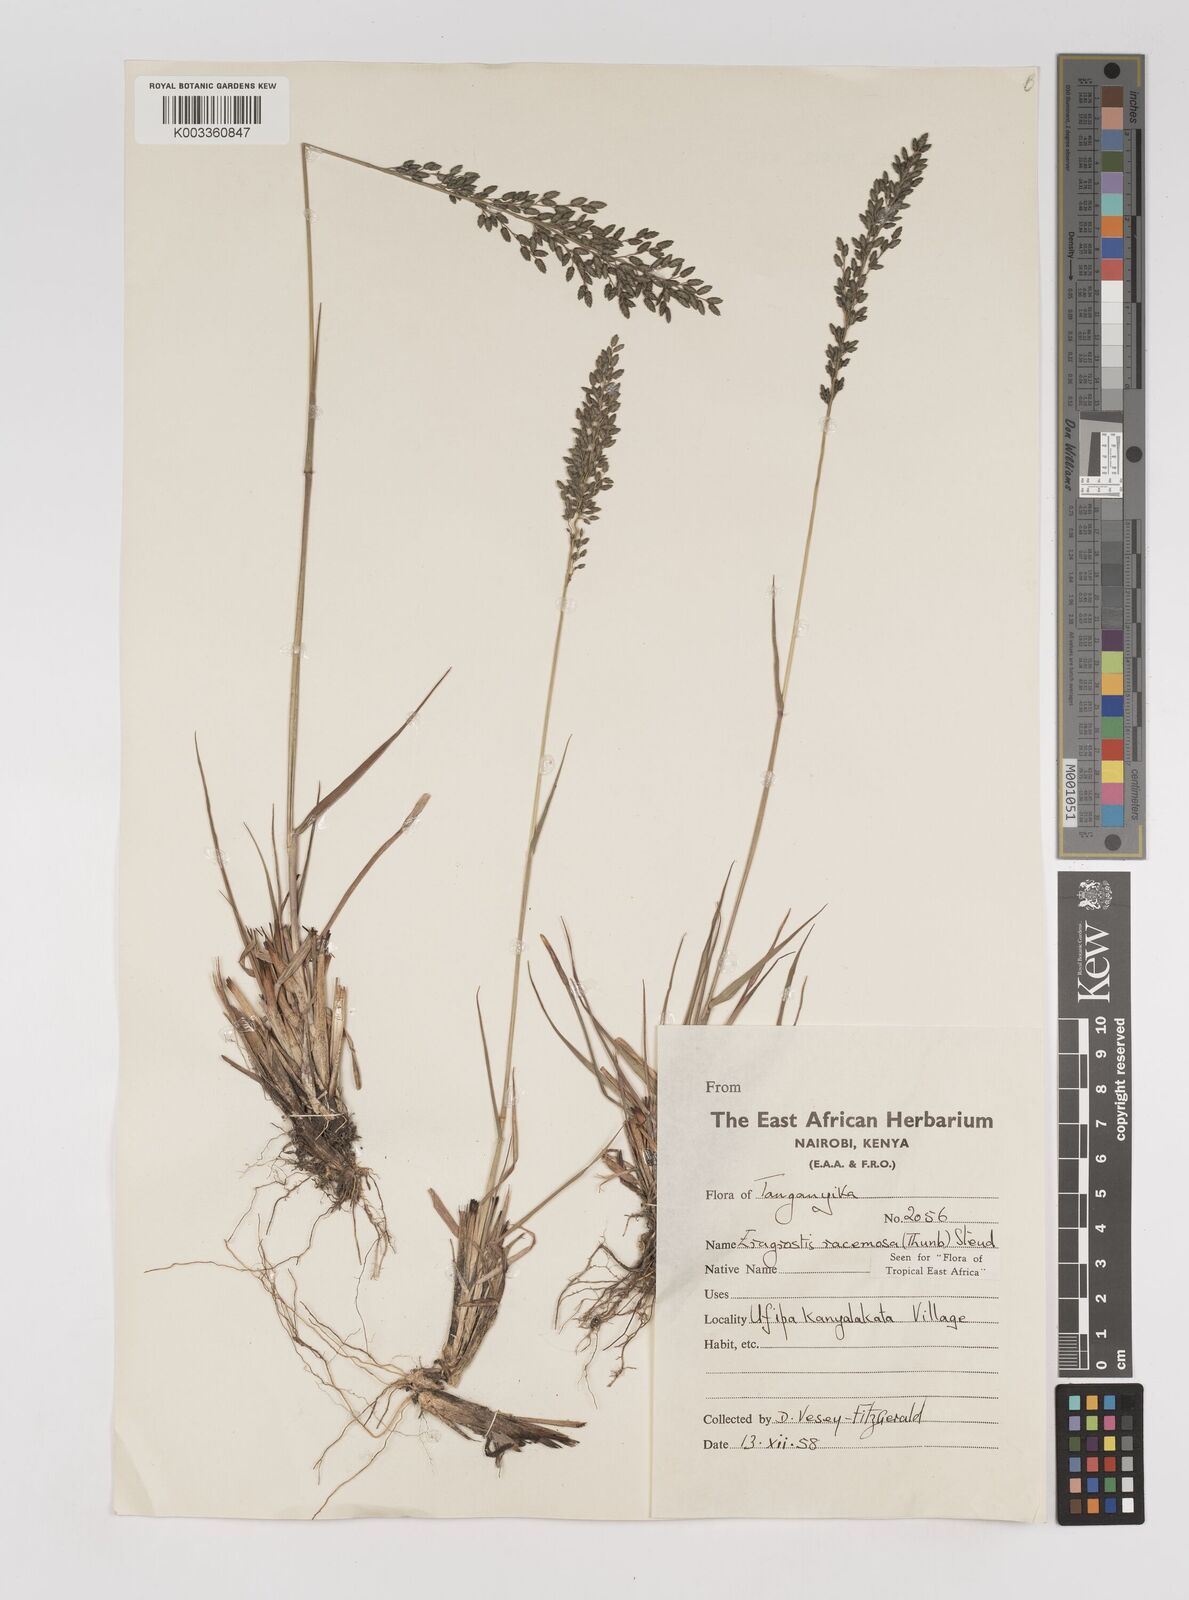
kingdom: Plantae
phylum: Tracheophyta
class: Liliopsida
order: Poales
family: Poaceae
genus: Eragrostis
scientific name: Eragrostis racemosa
